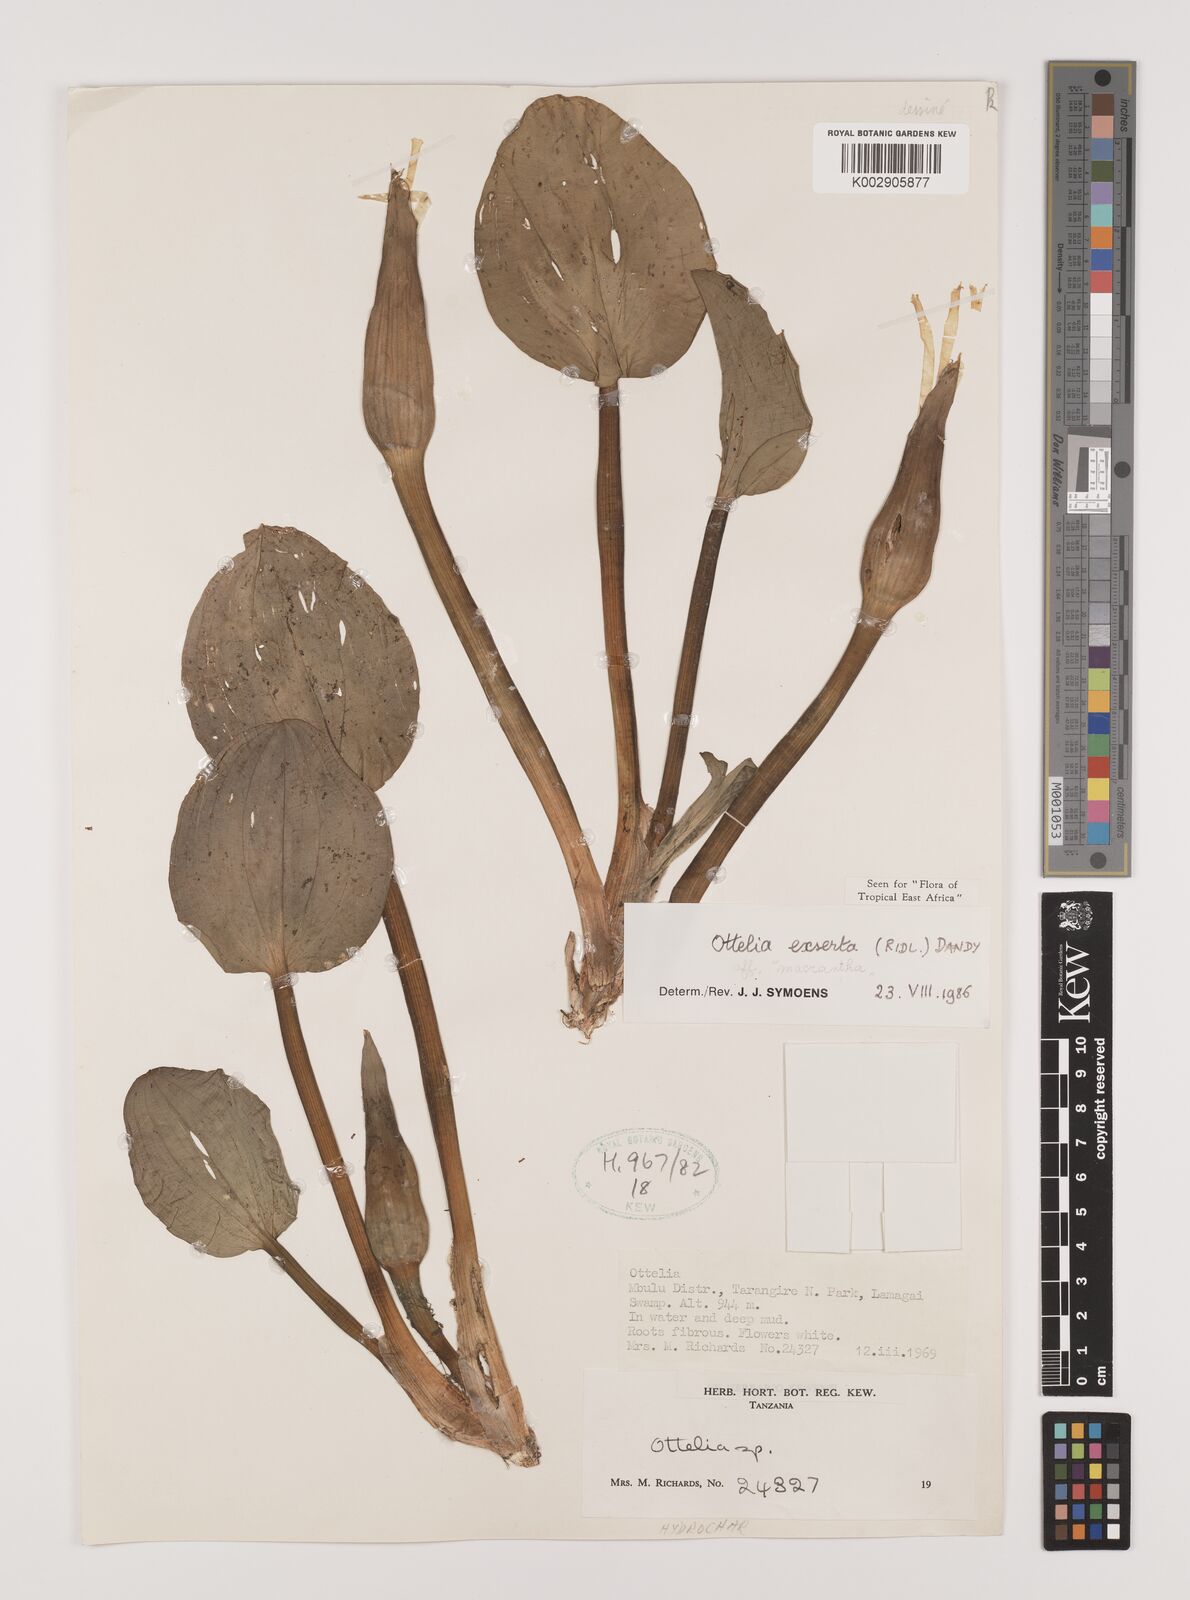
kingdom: Plantae
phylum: Tracheophyta
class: Liliopsida
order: Alismatales
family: Hydrocharitaceae
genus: Ottelia
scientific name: Ottelia exserta
